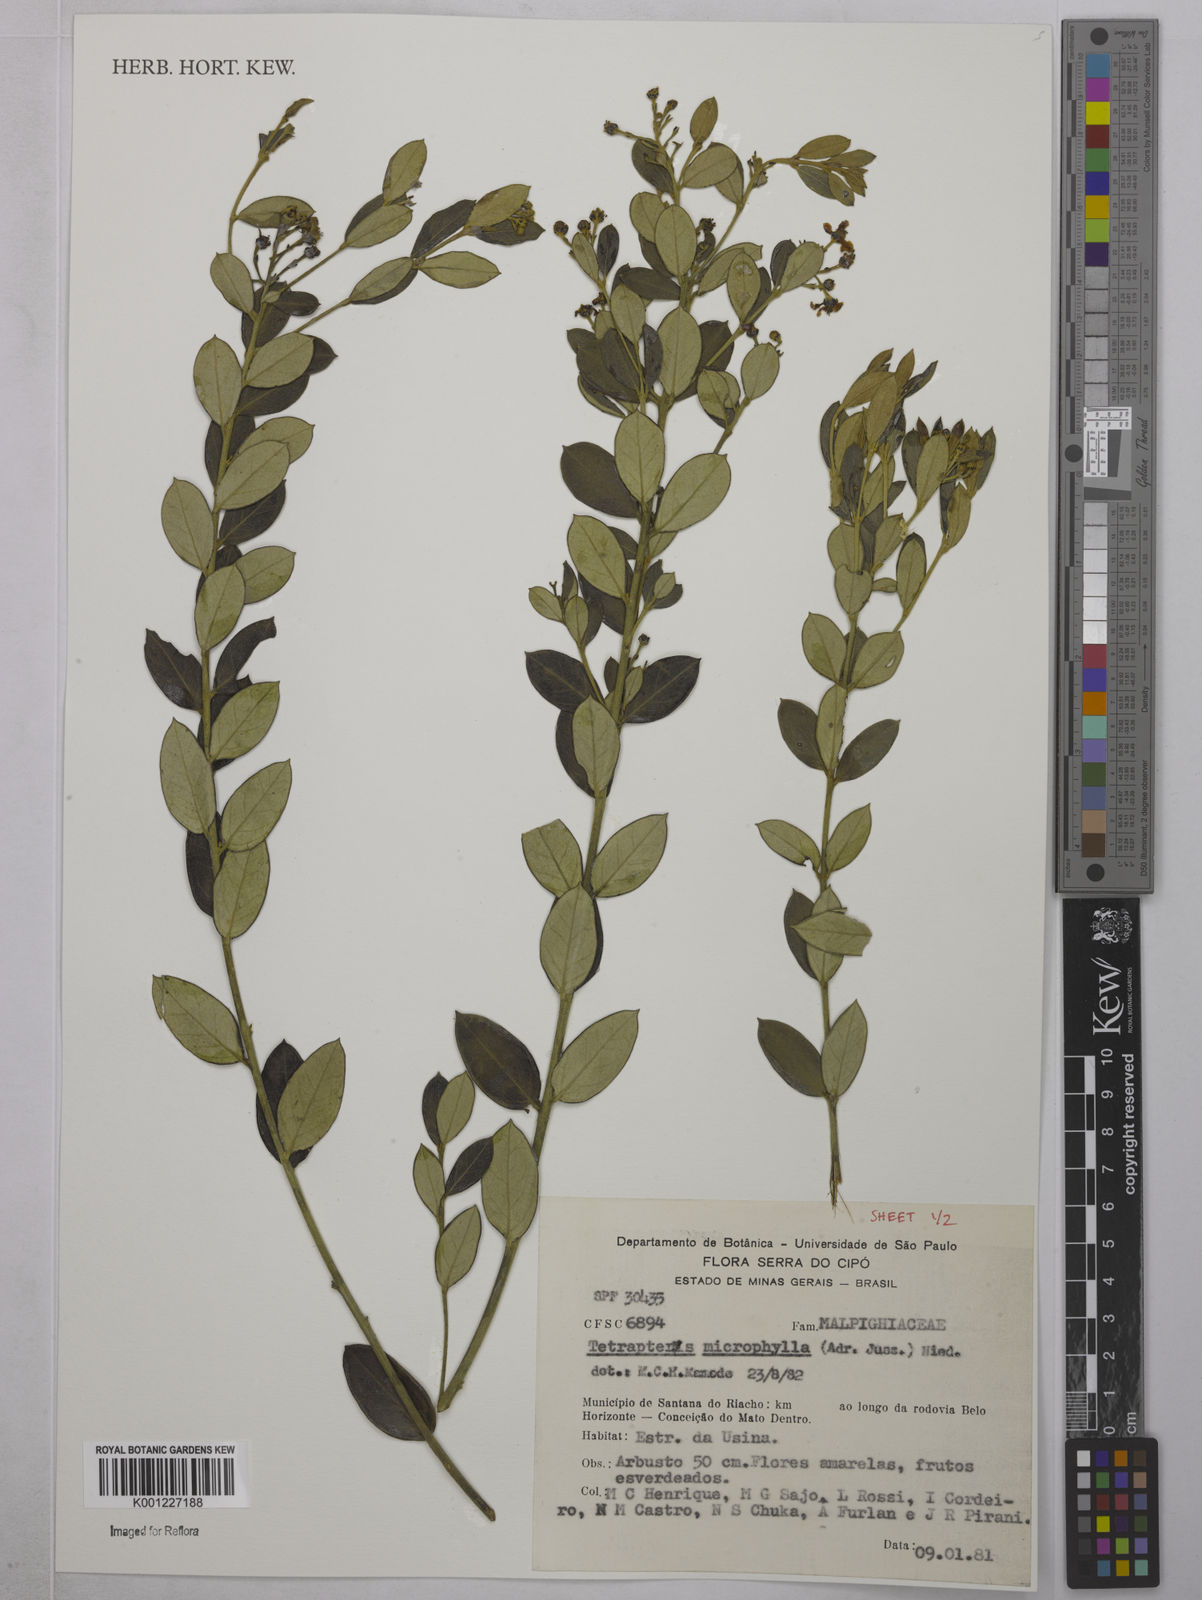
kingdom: Plantae
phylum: Tracheophyta
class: Magnoliopsida
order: Malpighiales
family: Malpighiaceae
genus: Glicophyllum
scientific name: Glicophyllum microphyllum
